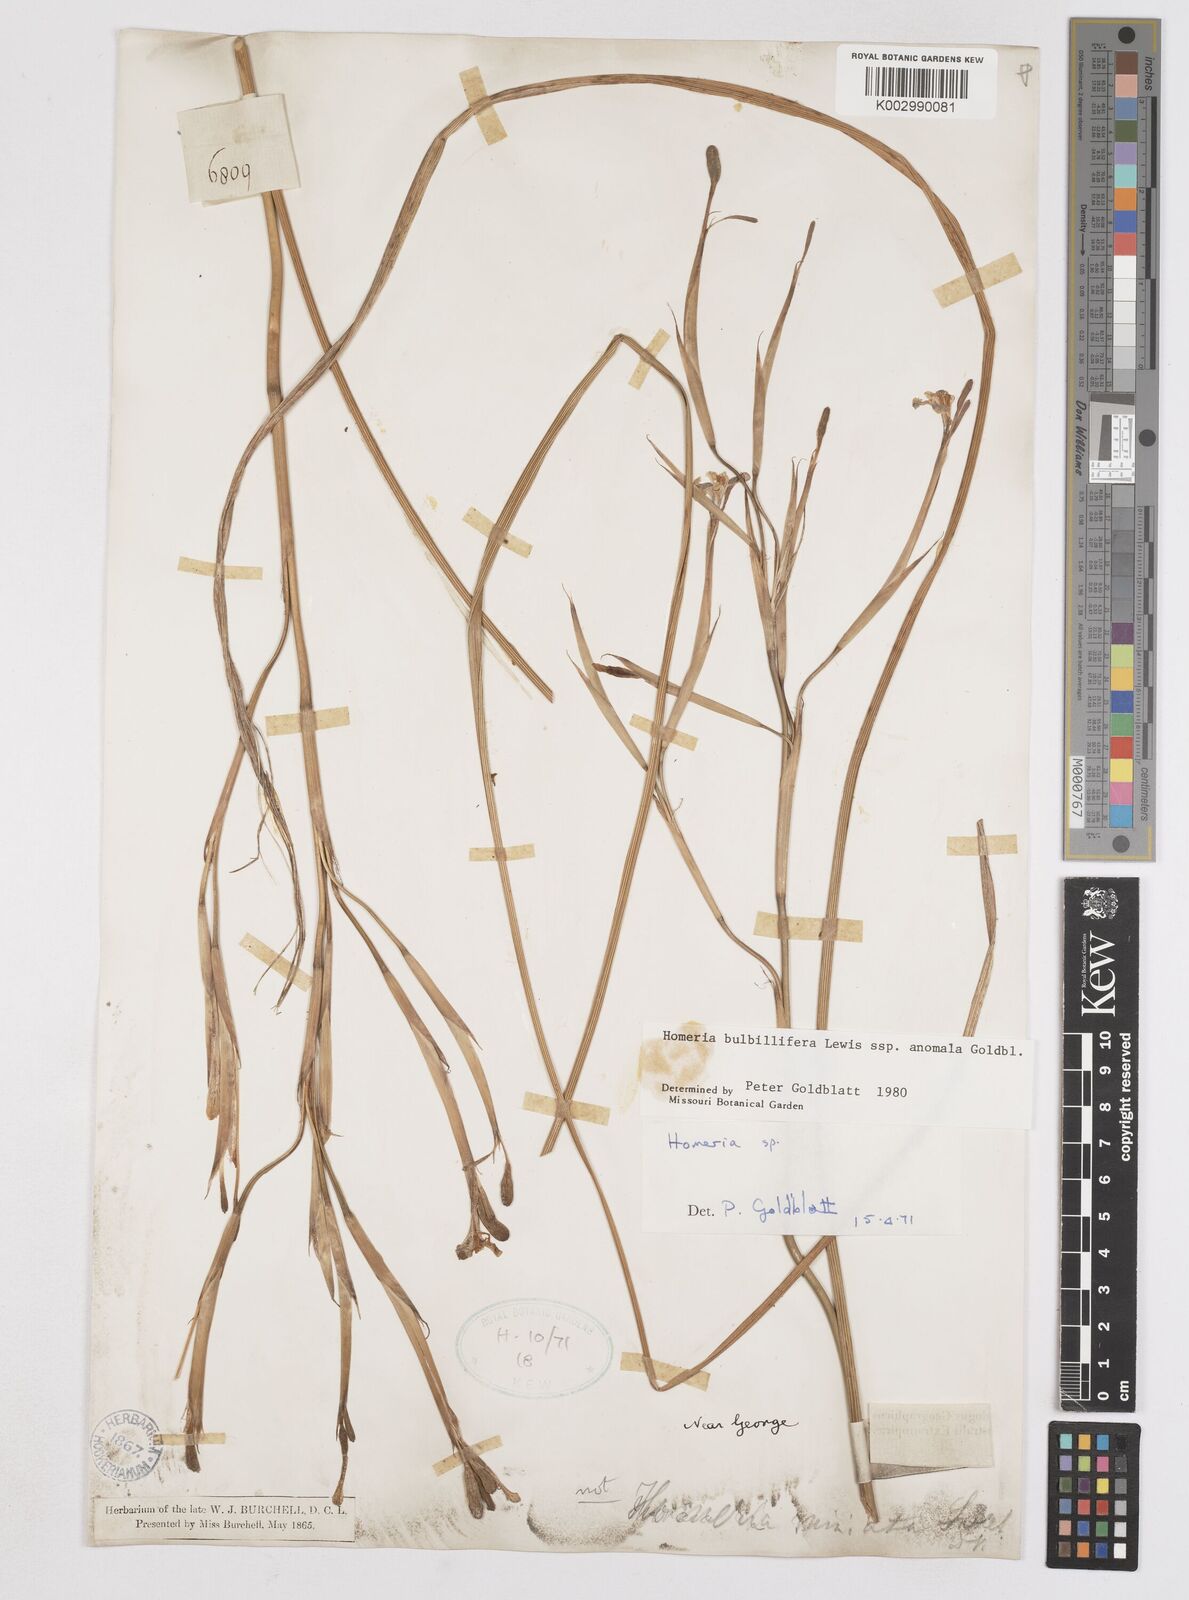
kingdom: Plantae
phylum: Tracheophyta
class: Liliopsida
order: Asparagales
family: Iridaceae
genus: Moraea
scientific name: Moraea bulbillifera
